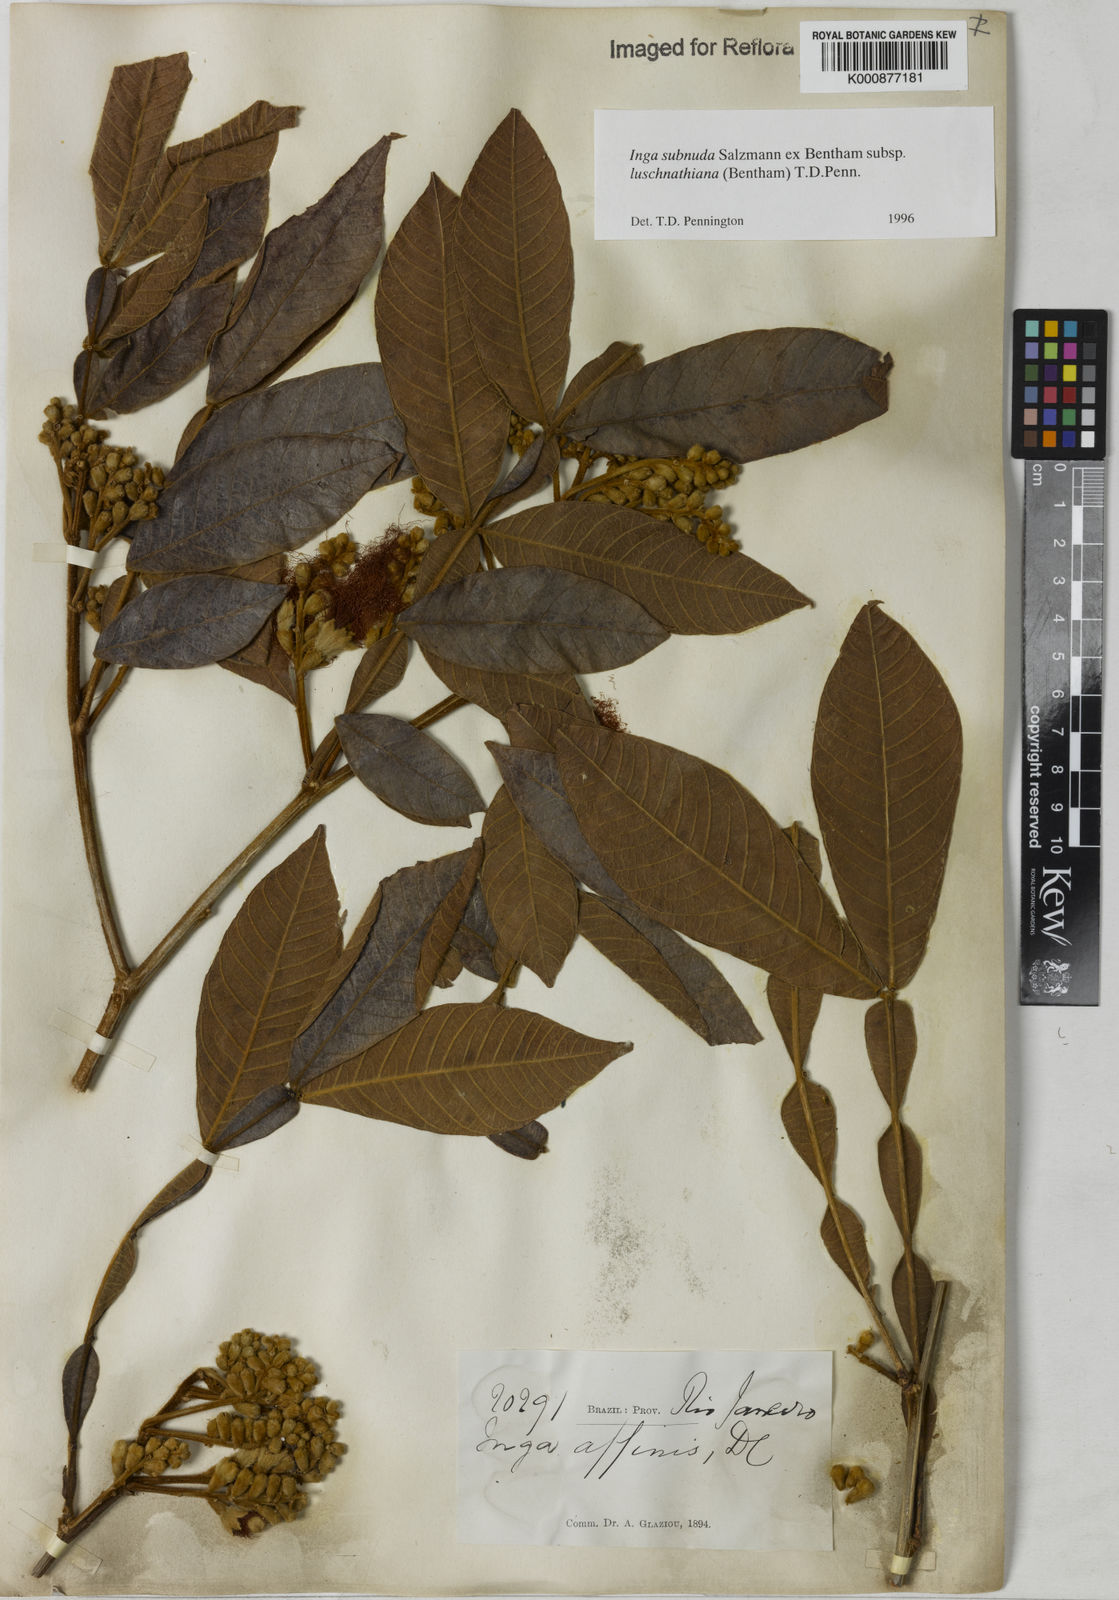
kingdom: Plantae
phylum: Tracheophyta
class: Magnoliopsida
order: Fabales
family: Fabaceae
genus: Inga
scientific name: Inga subnuda
